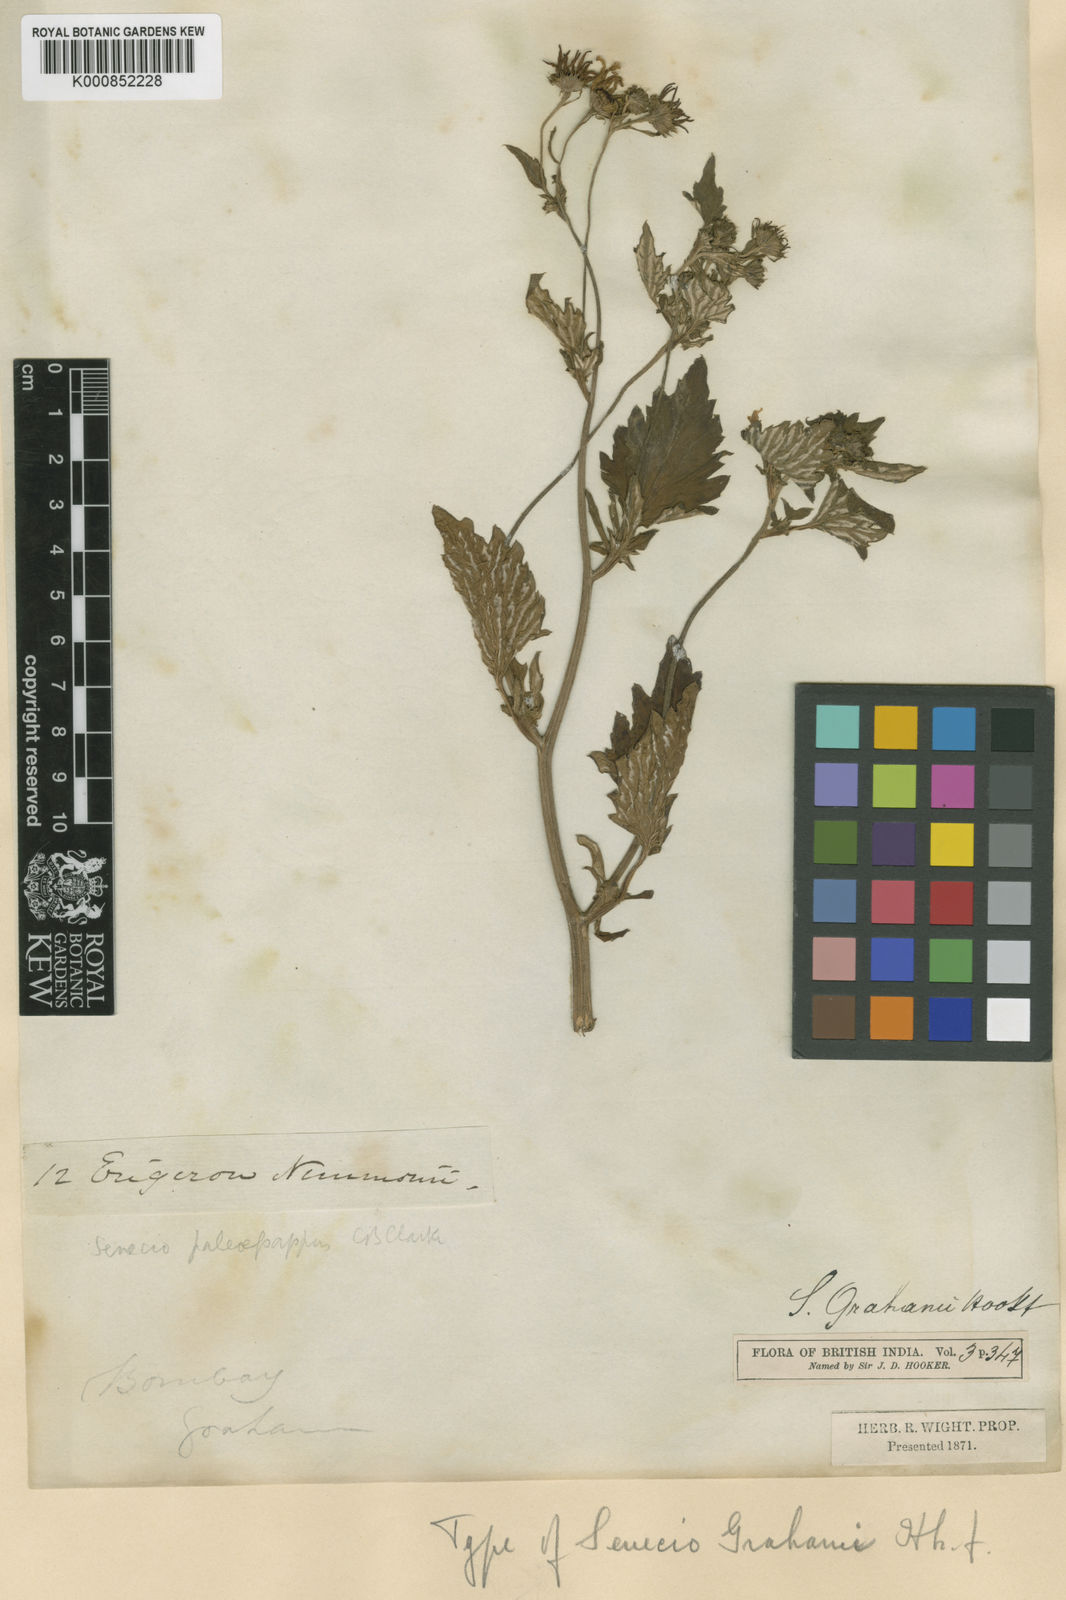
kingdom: Plantae
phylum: Tracheophyta
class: Magnoliopsida
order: Asterales
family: Asteraceae
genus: Senecio
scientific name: Senecio bombayensis
